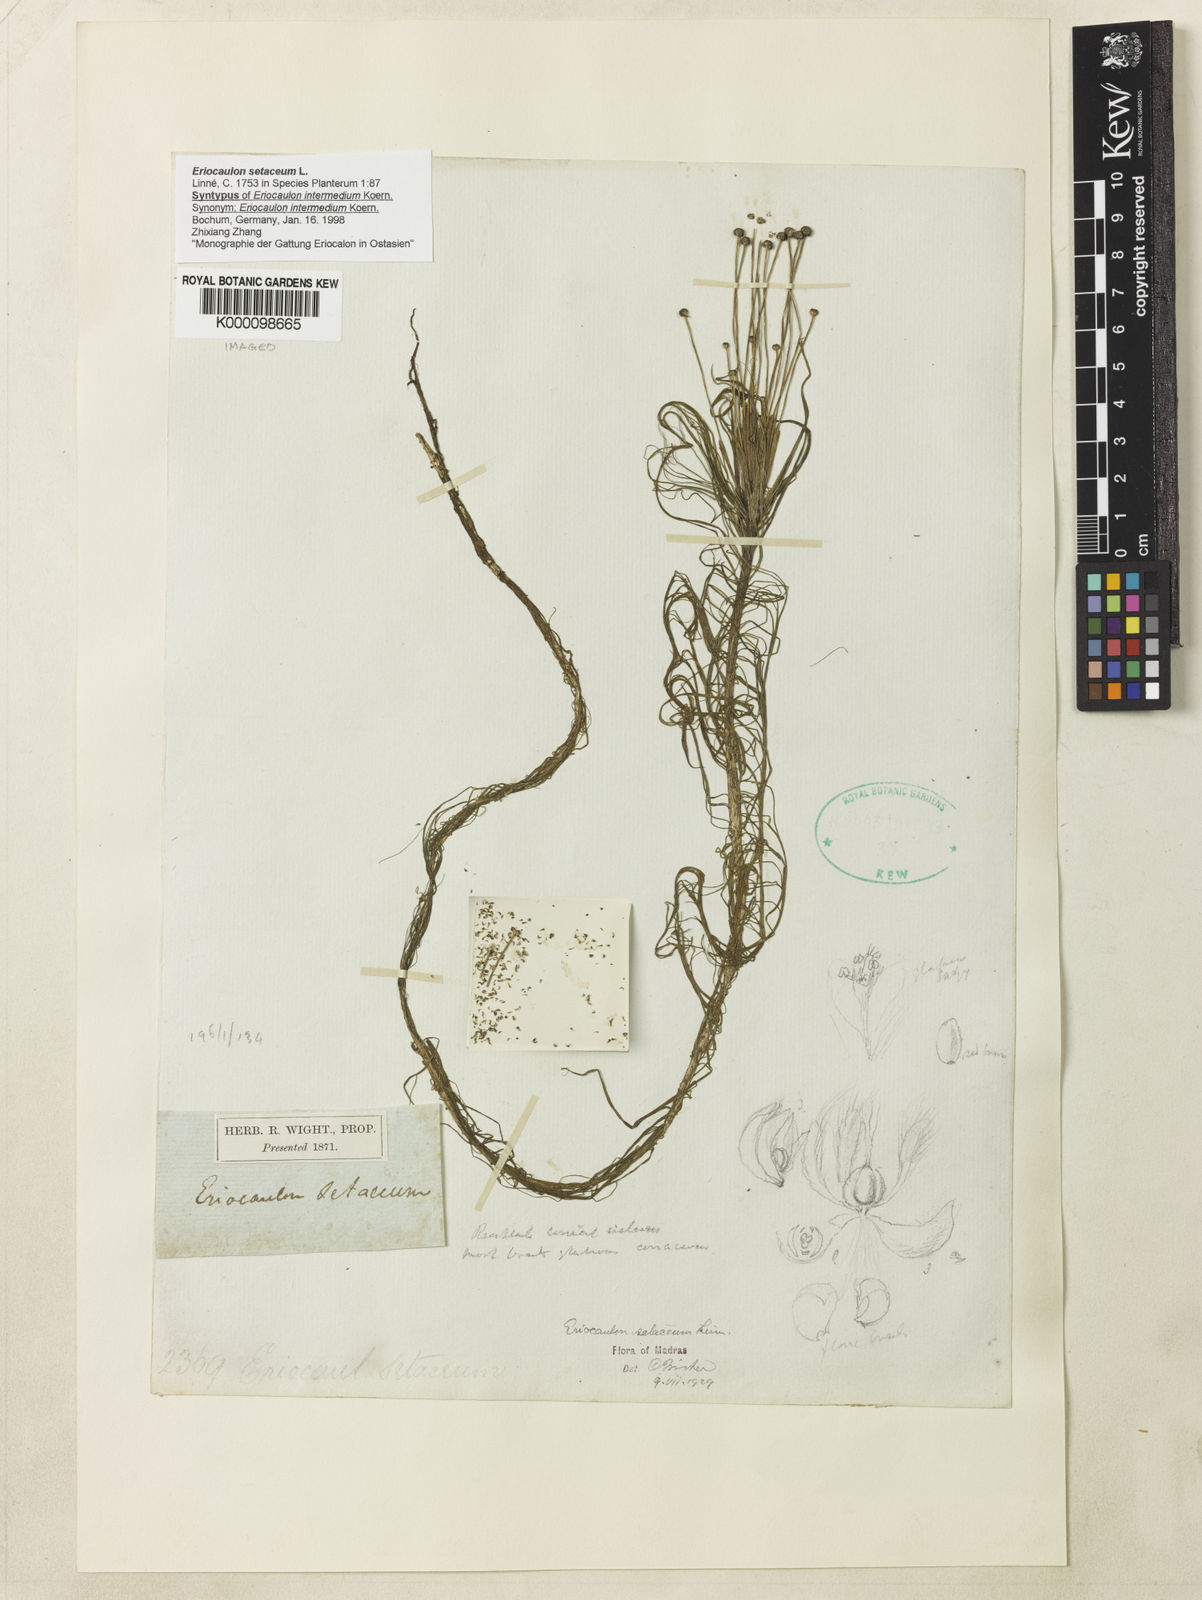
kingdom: Plantae
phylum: Tracheophyta
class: Liliopsida
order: Poales
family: Eriocaulaceae
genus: Eriocaulon
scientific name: Eriocaulon setaceum
